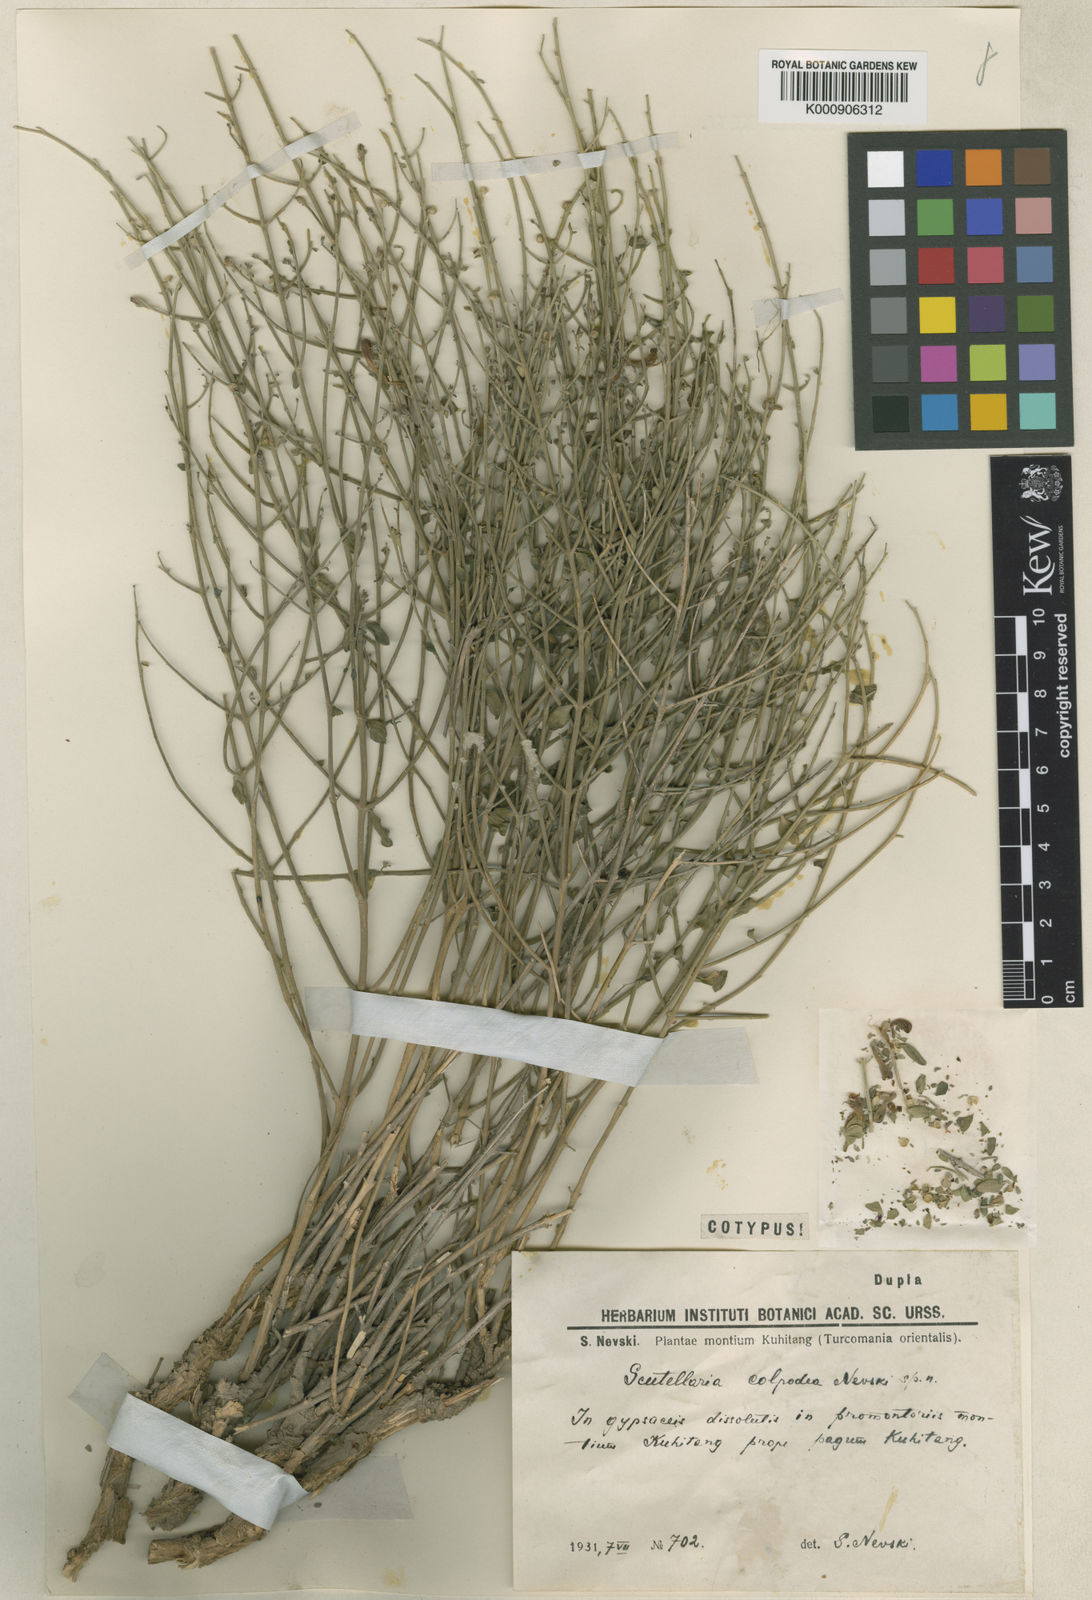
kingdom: Plantae
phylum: Tracheophyta
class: Magnoliopsida
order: Lamiales
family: Lamiaceae
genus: Scutellaria
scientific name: Scutellaria colpodea
